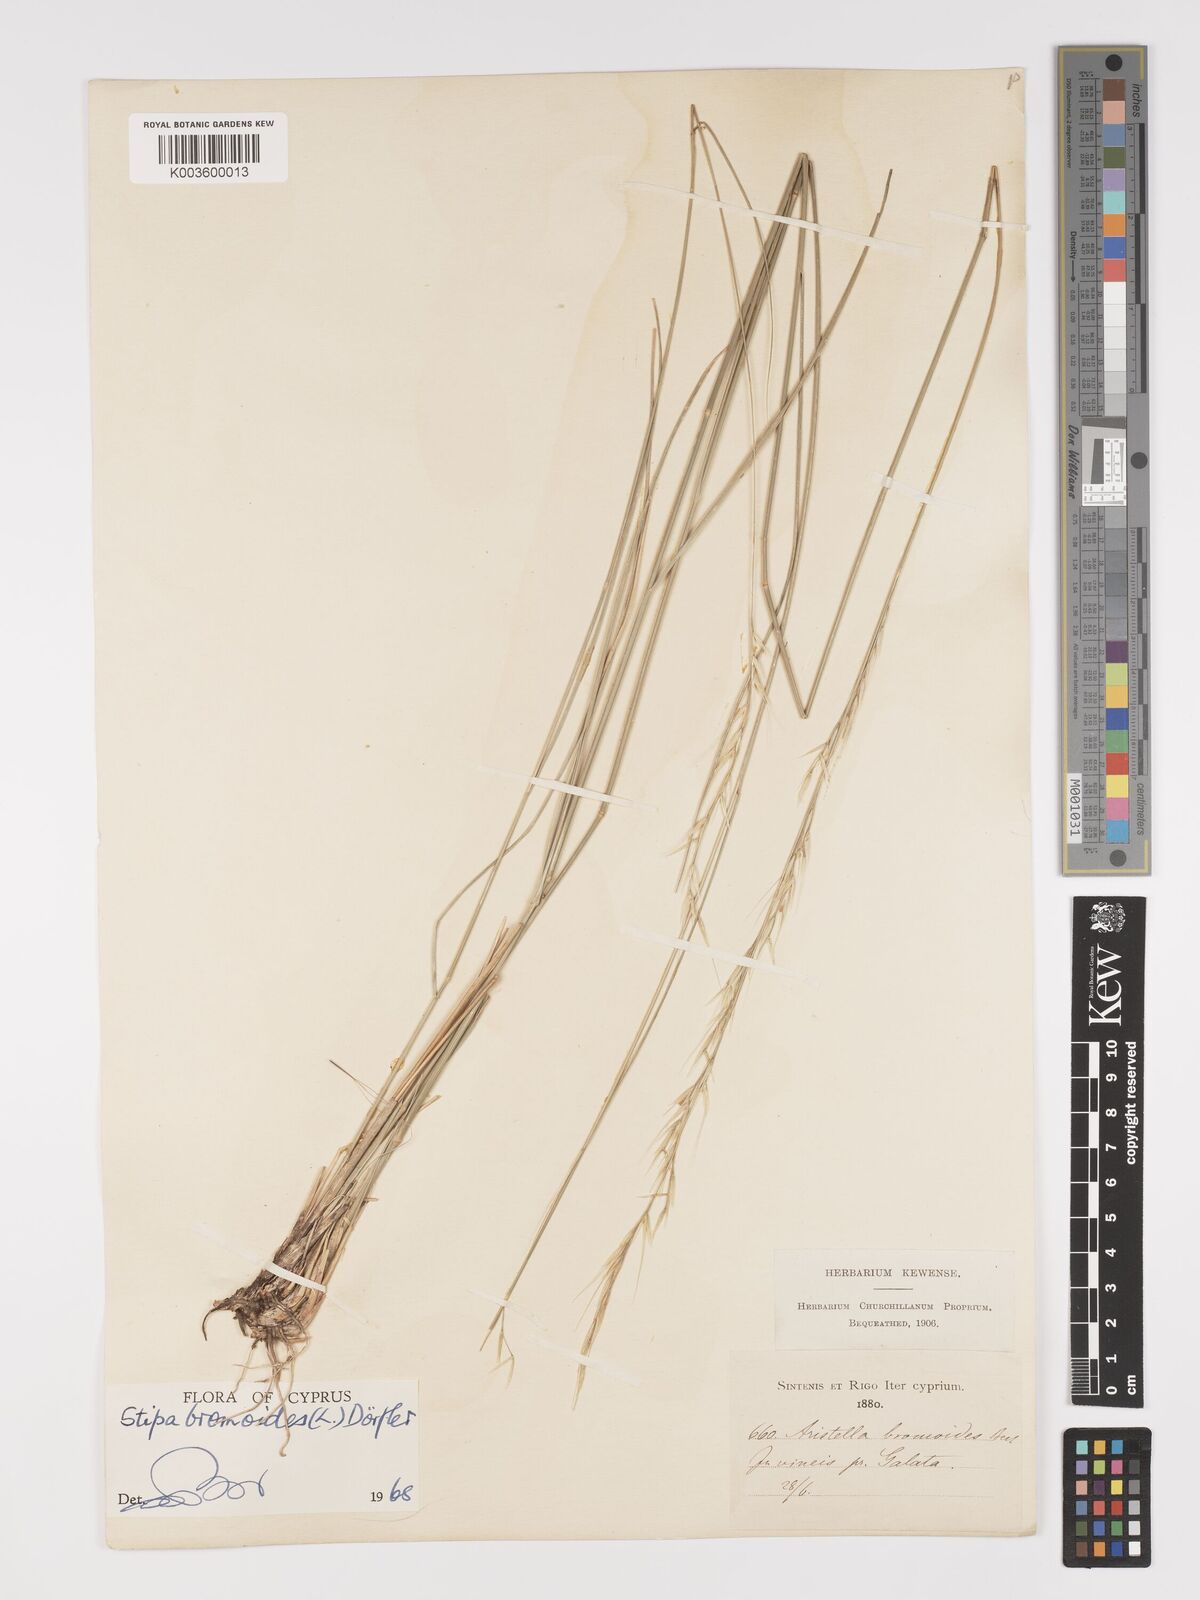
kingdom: Plantae
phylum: Tracheophyta
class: Liliopsida
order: Poales
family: Poaceae
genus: Achnatherum
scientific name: Achnatherum bromoides
